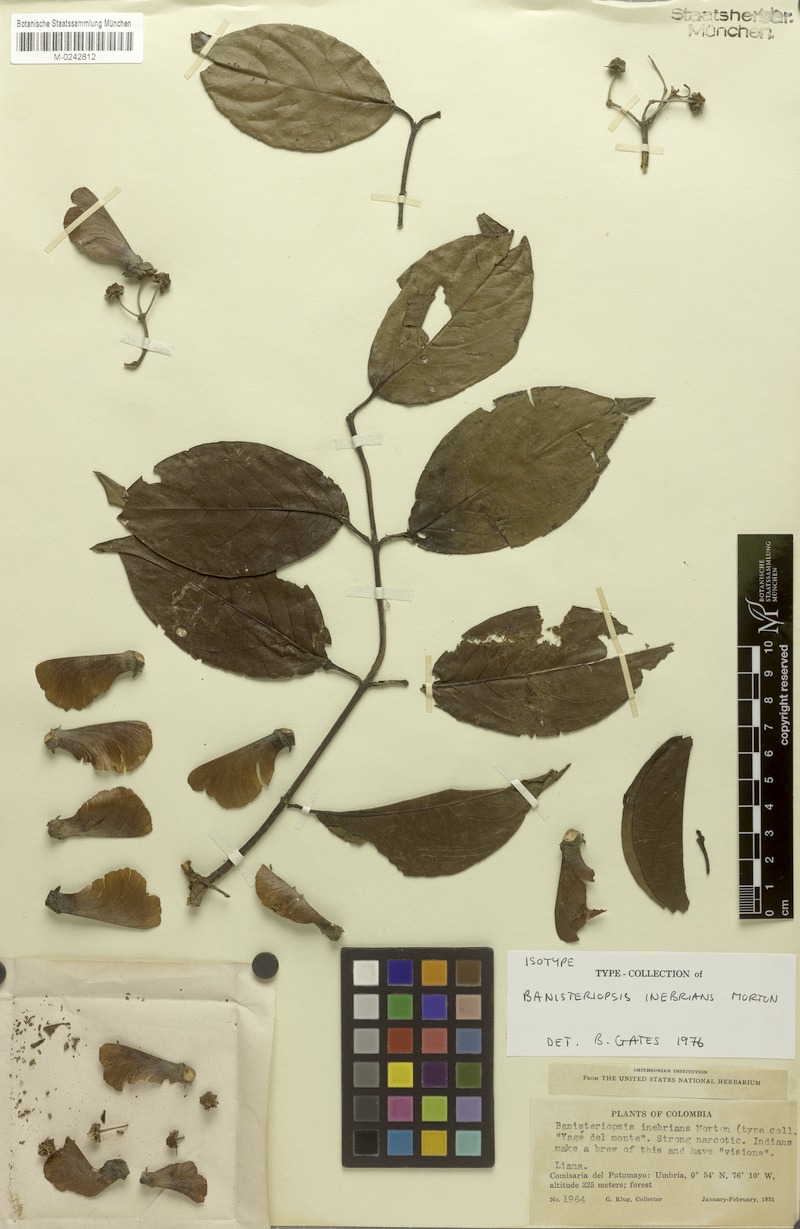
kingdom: Plantae
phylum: Tracheophyta
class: Magnoliopsida
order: Malpighiales
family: Malpighiaceae
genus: Banisteriopsis
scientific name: Banisteriopsis caapi
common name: Soulvine
